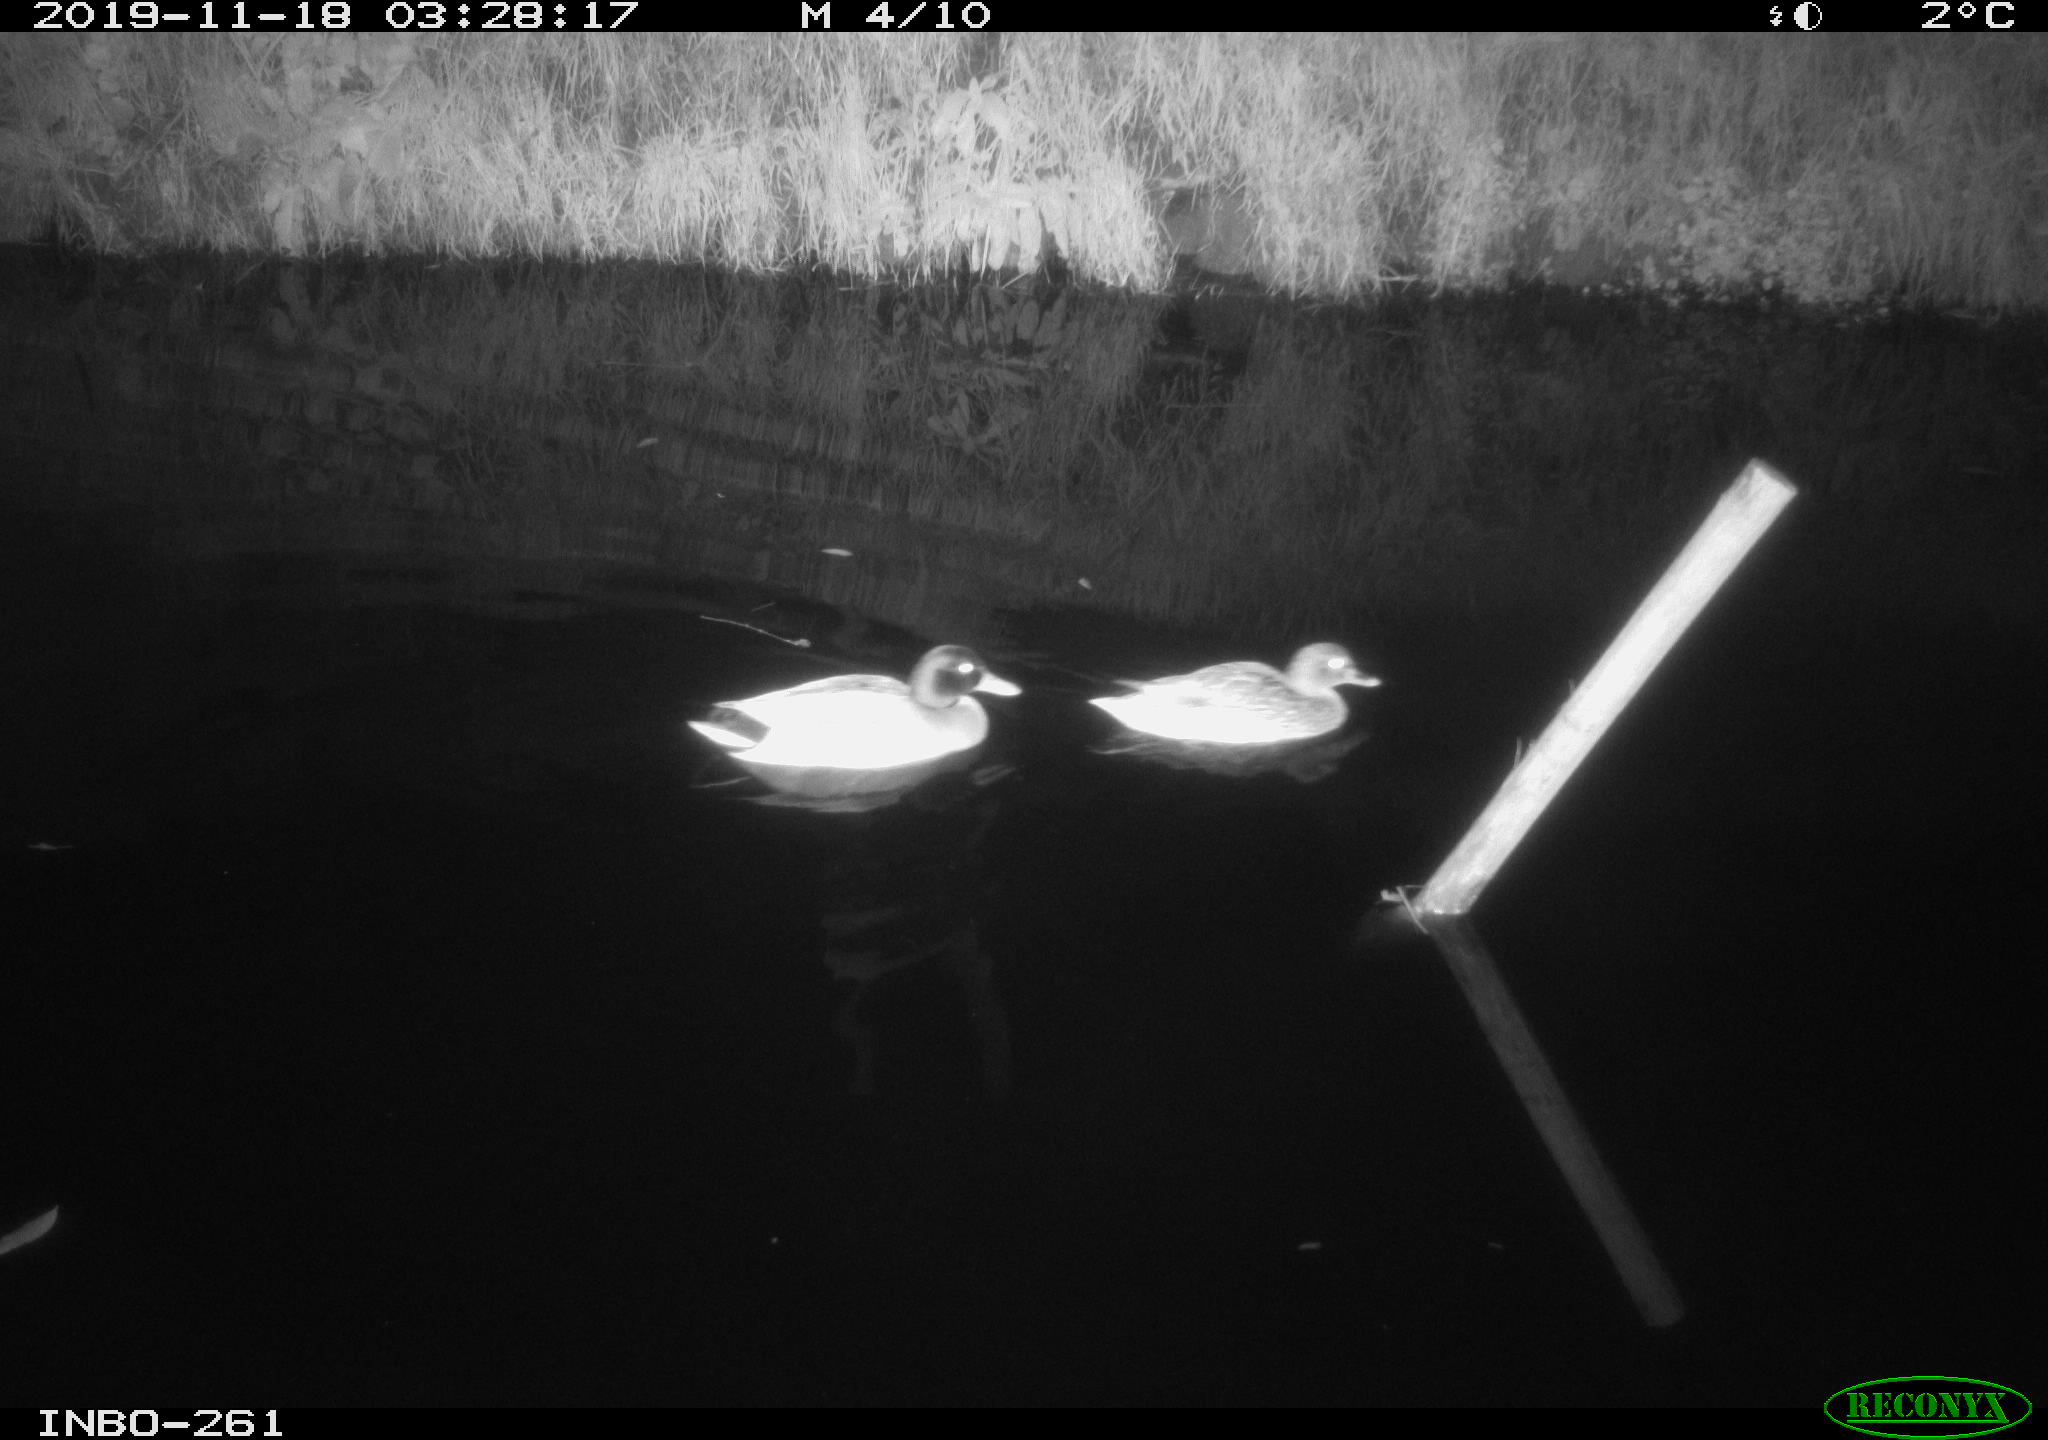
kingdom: Animalia
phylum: Chordata
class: Aves
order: Anseriformes
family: Anatidae
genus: Anas
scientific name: Anas platyrhynchos
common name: Mallard
